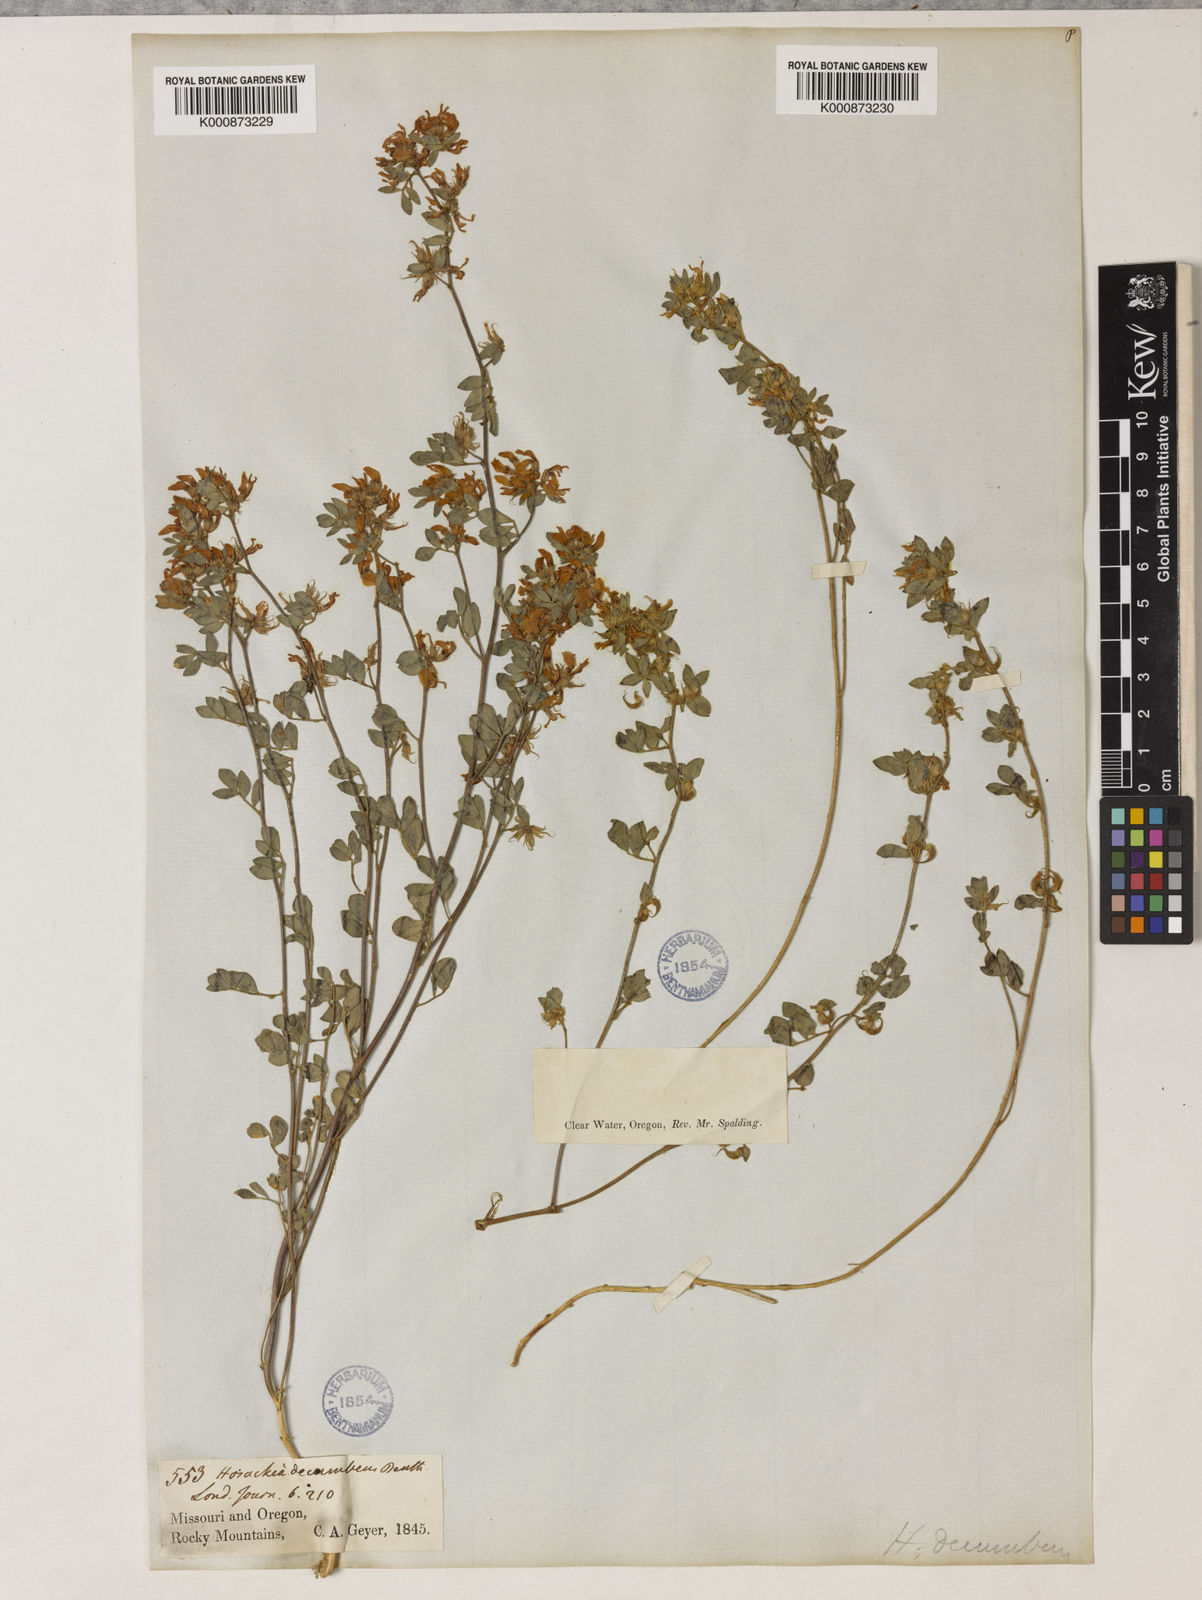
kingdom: Plantae
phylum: Tracheophyta
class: Magnoliopsida
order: Fabales
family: Fabaceae
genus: Acmispon
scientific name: Acmispon decumbens
